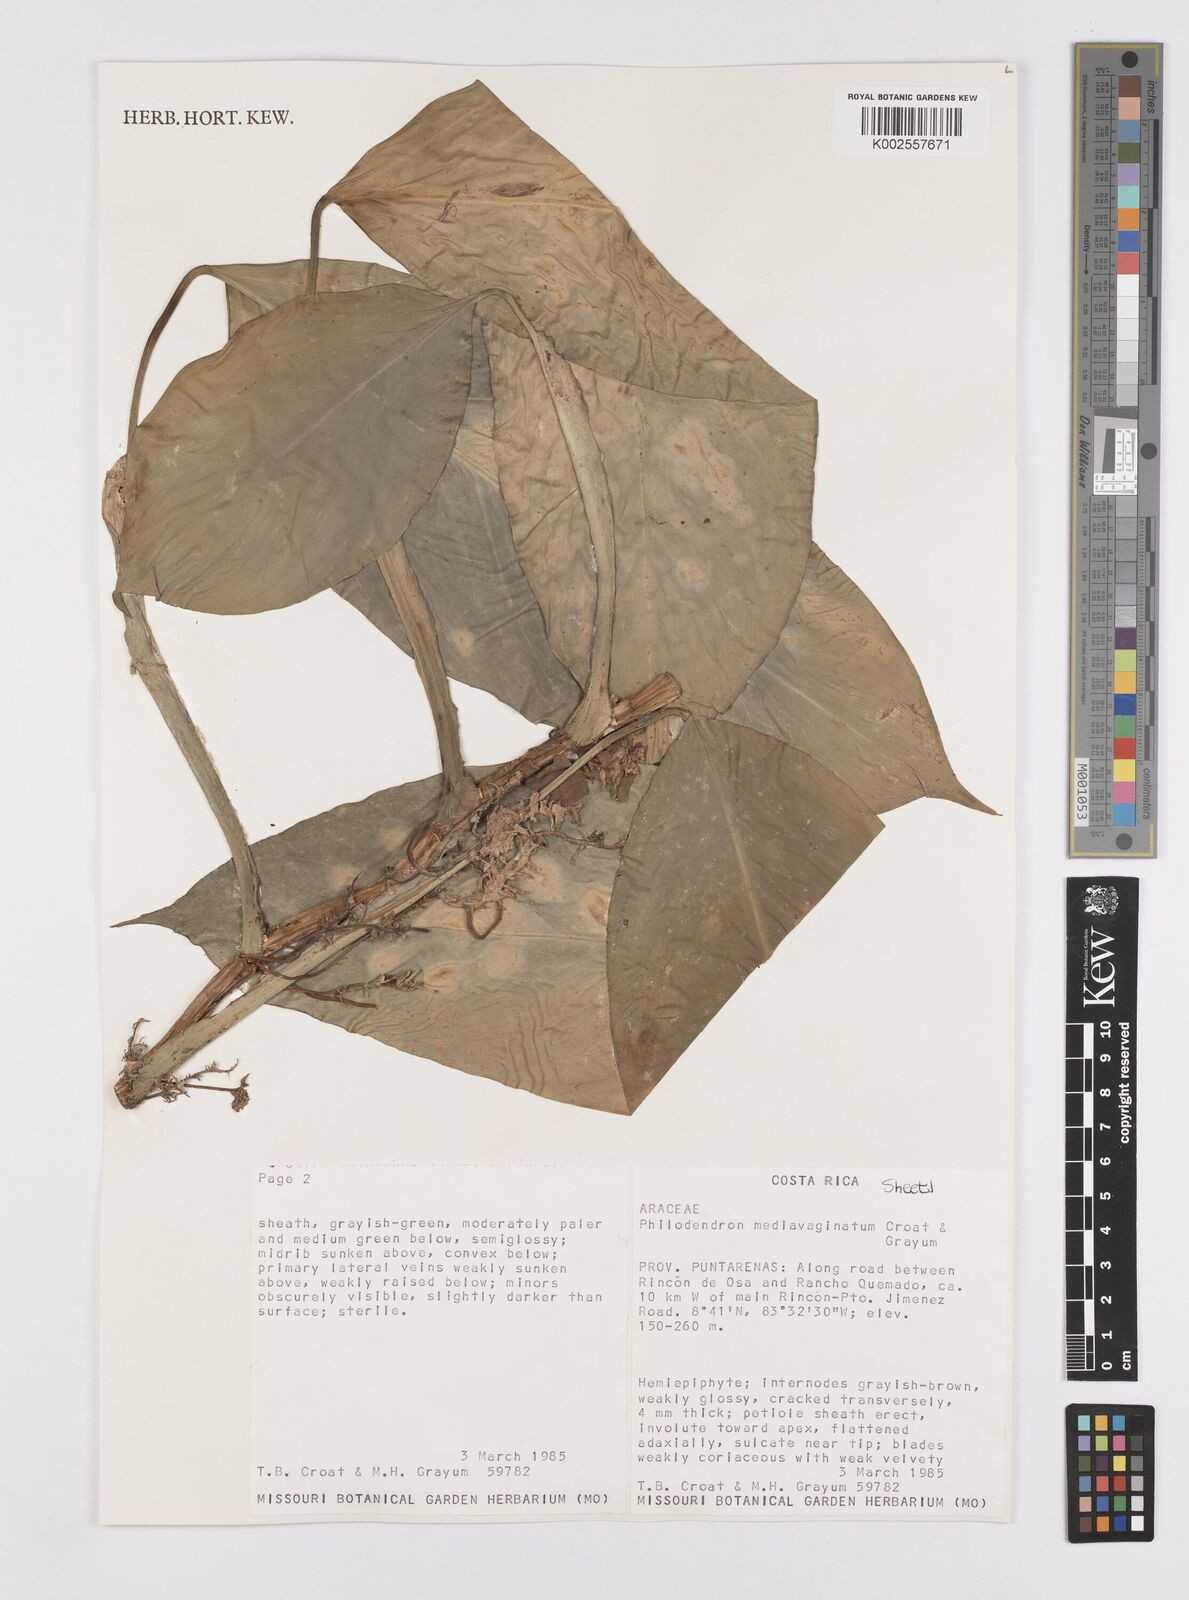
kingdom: Plantae
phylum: Tracheophyta
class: Liliopsida
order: Alismatales
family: Araceae
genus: Philodendron
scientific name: Philodendron
